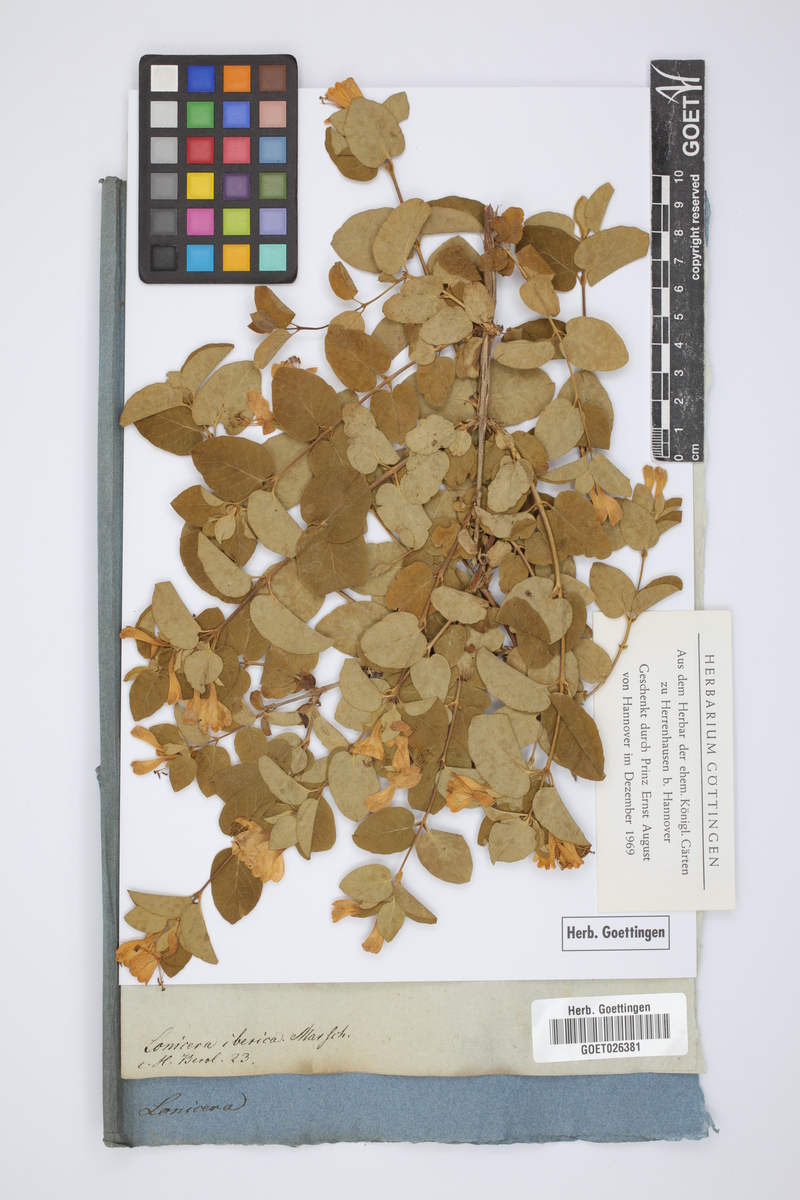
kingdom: Plantae
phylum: Tracheophyta
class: Magnoliopsida
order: Dipsacales
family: Caprifoliaceae
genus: Lonicera
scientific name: Lonicera iberica
